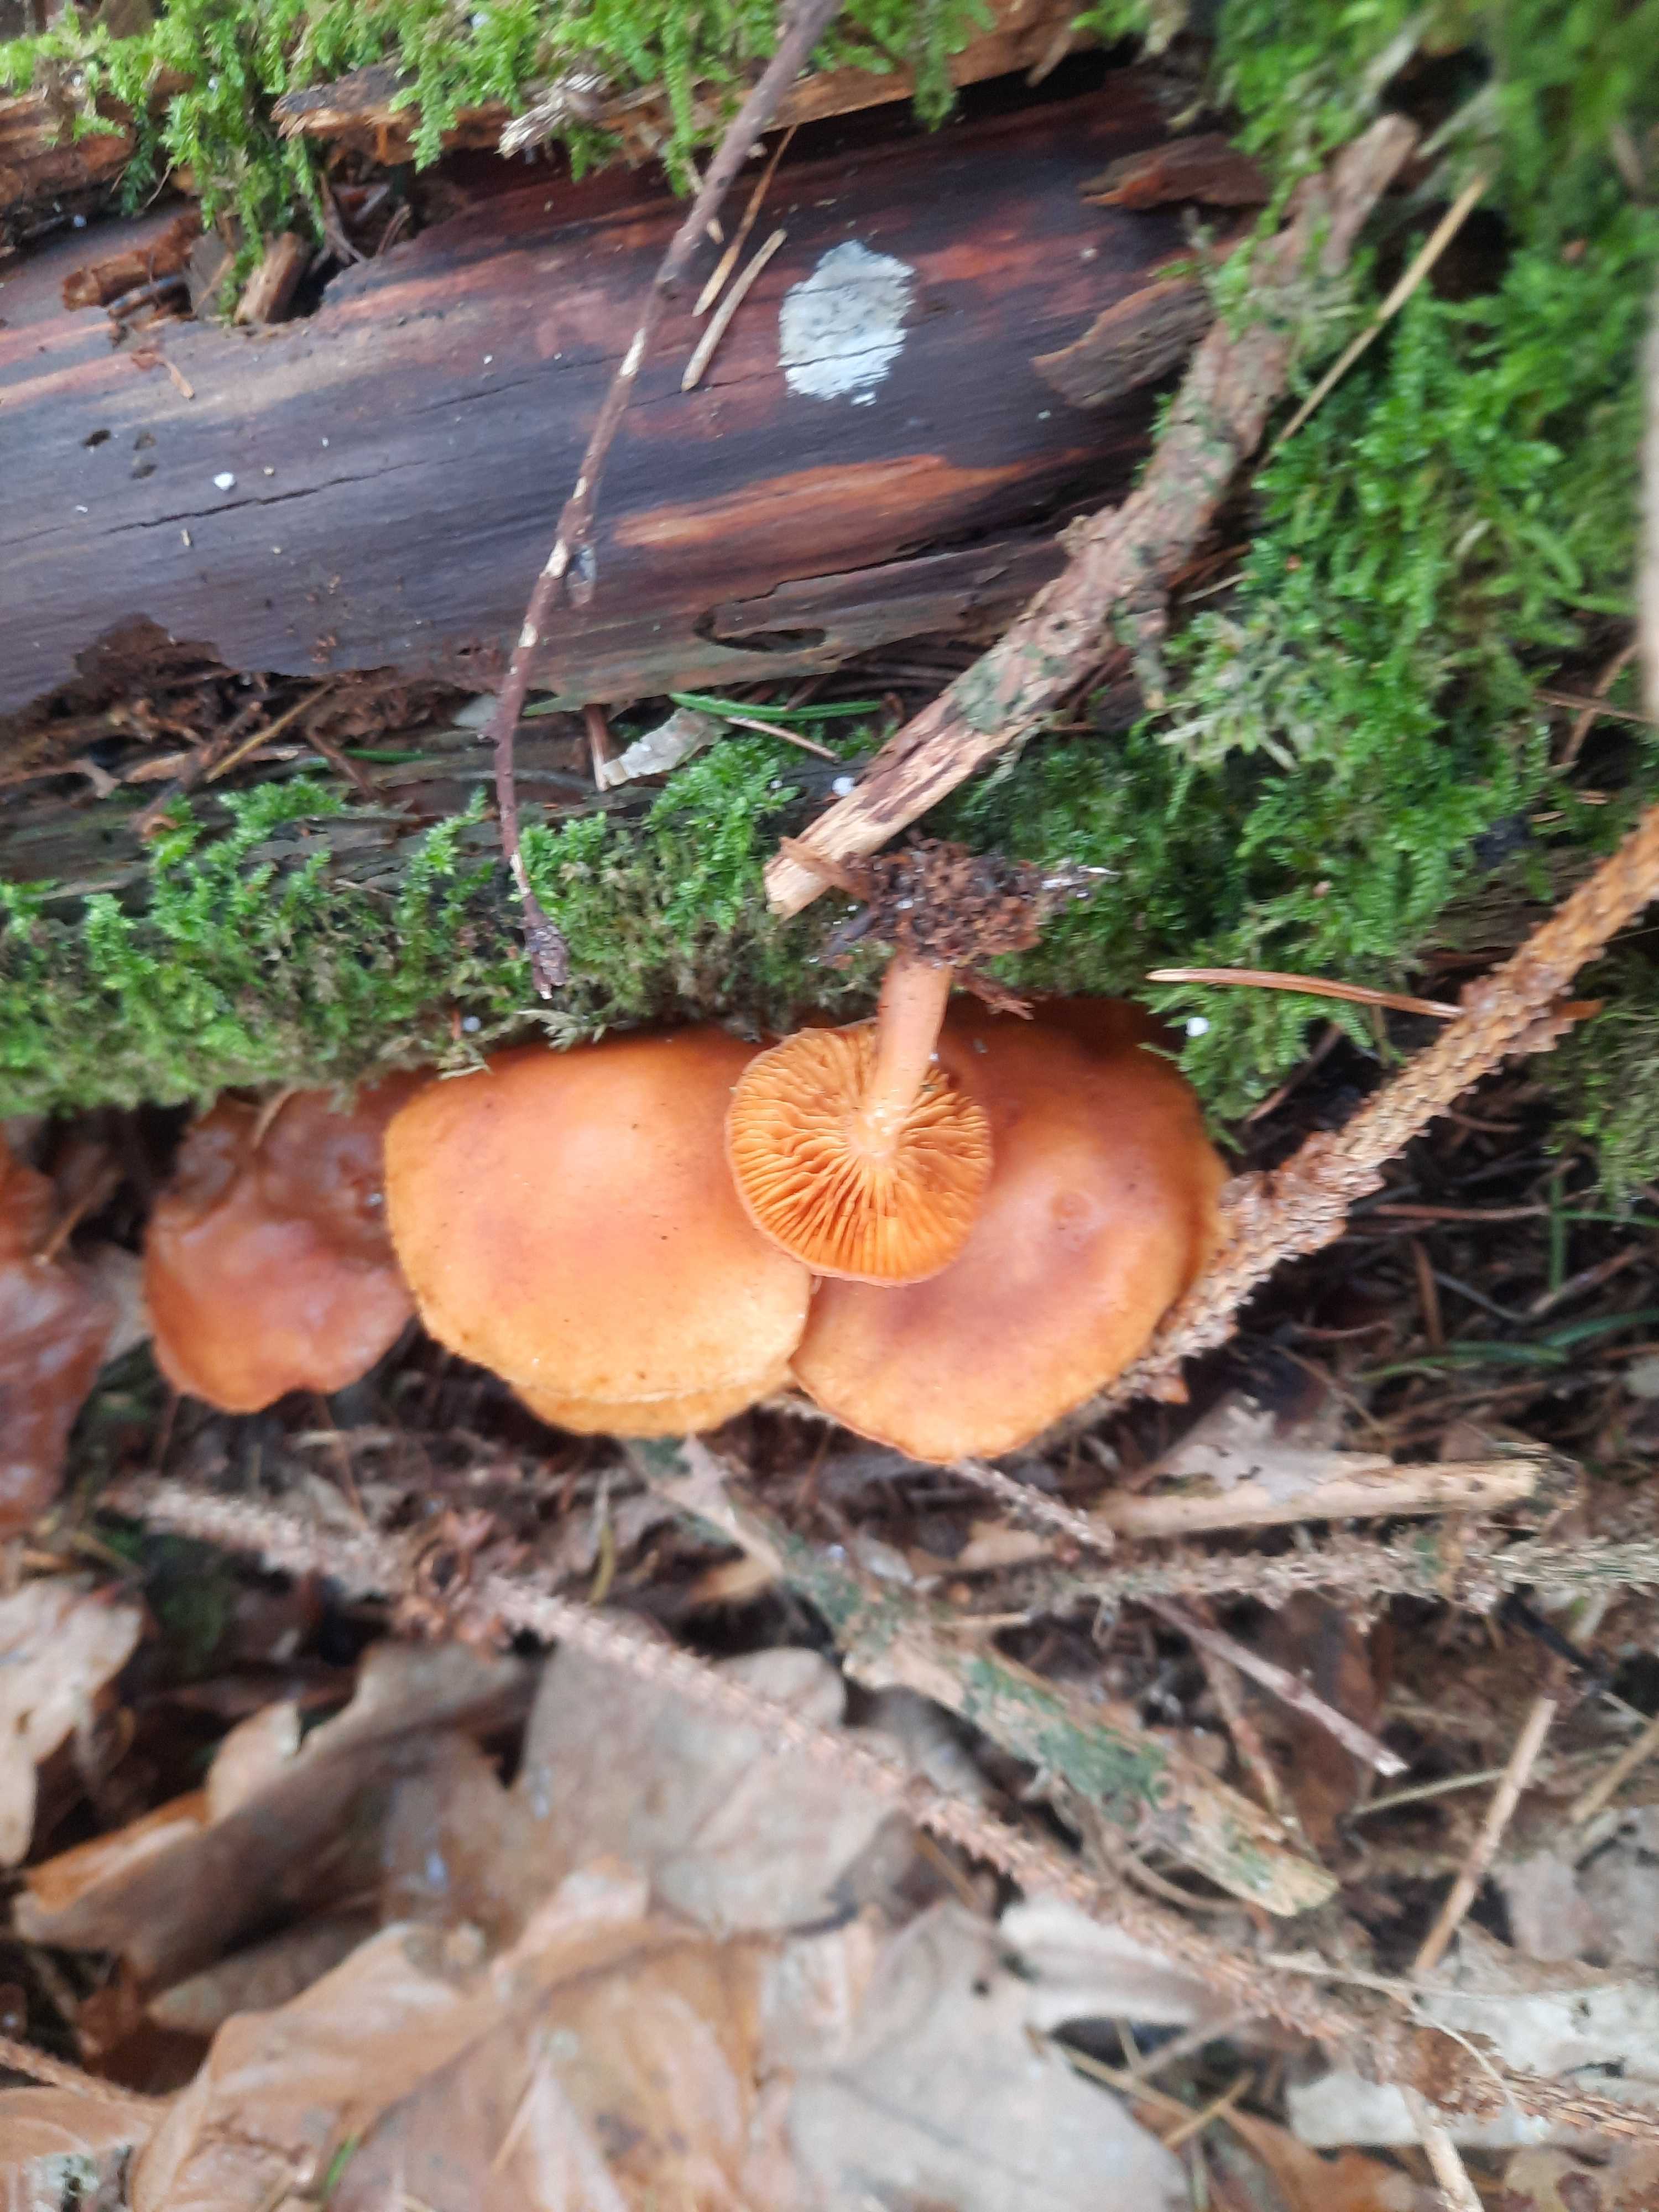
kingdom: Fungi
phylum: Basidiomycota
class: Agaricomycetes
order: Agaricales
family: Hymenogastraceae
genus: Gymnopilus
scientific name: Gymnopilus penetrans
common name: plettet flammehat
